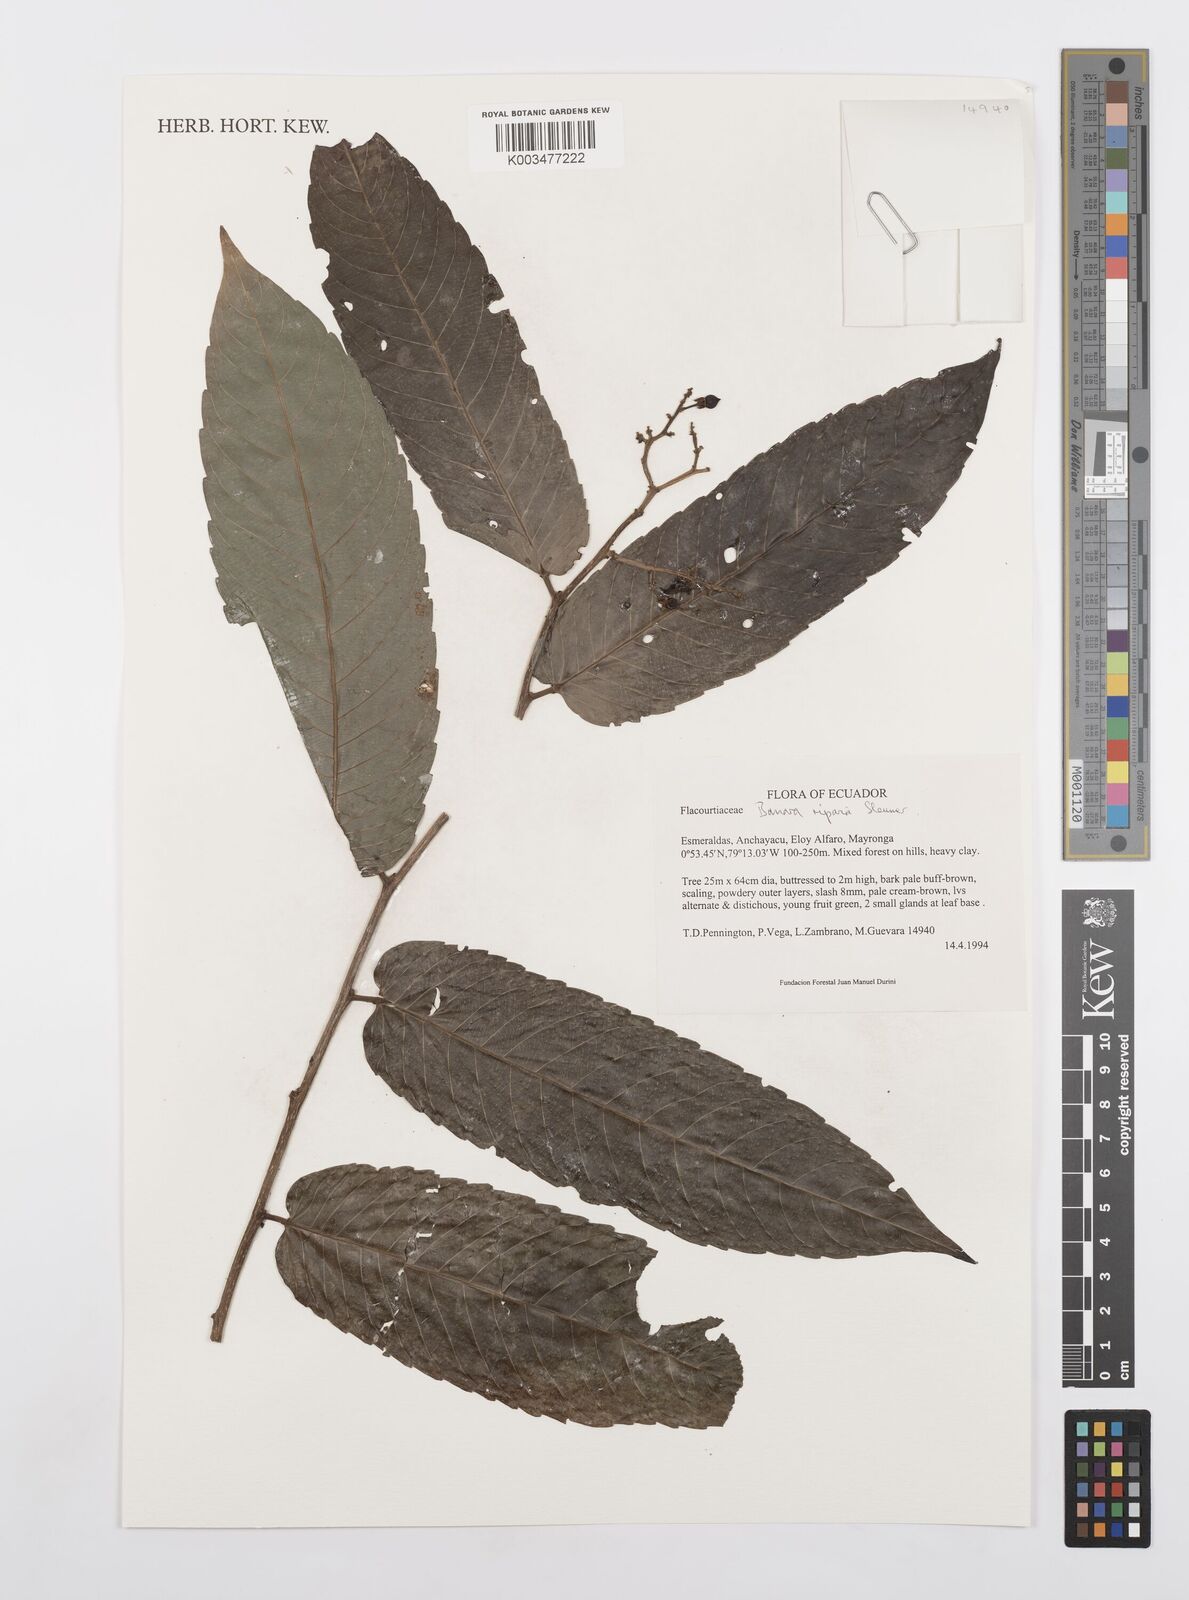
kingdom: Plantae
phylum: Tracheophyta
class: Magnoliopsida
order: Malpighiales
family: Salicaceae
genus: Banara
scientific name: Banara riparia
